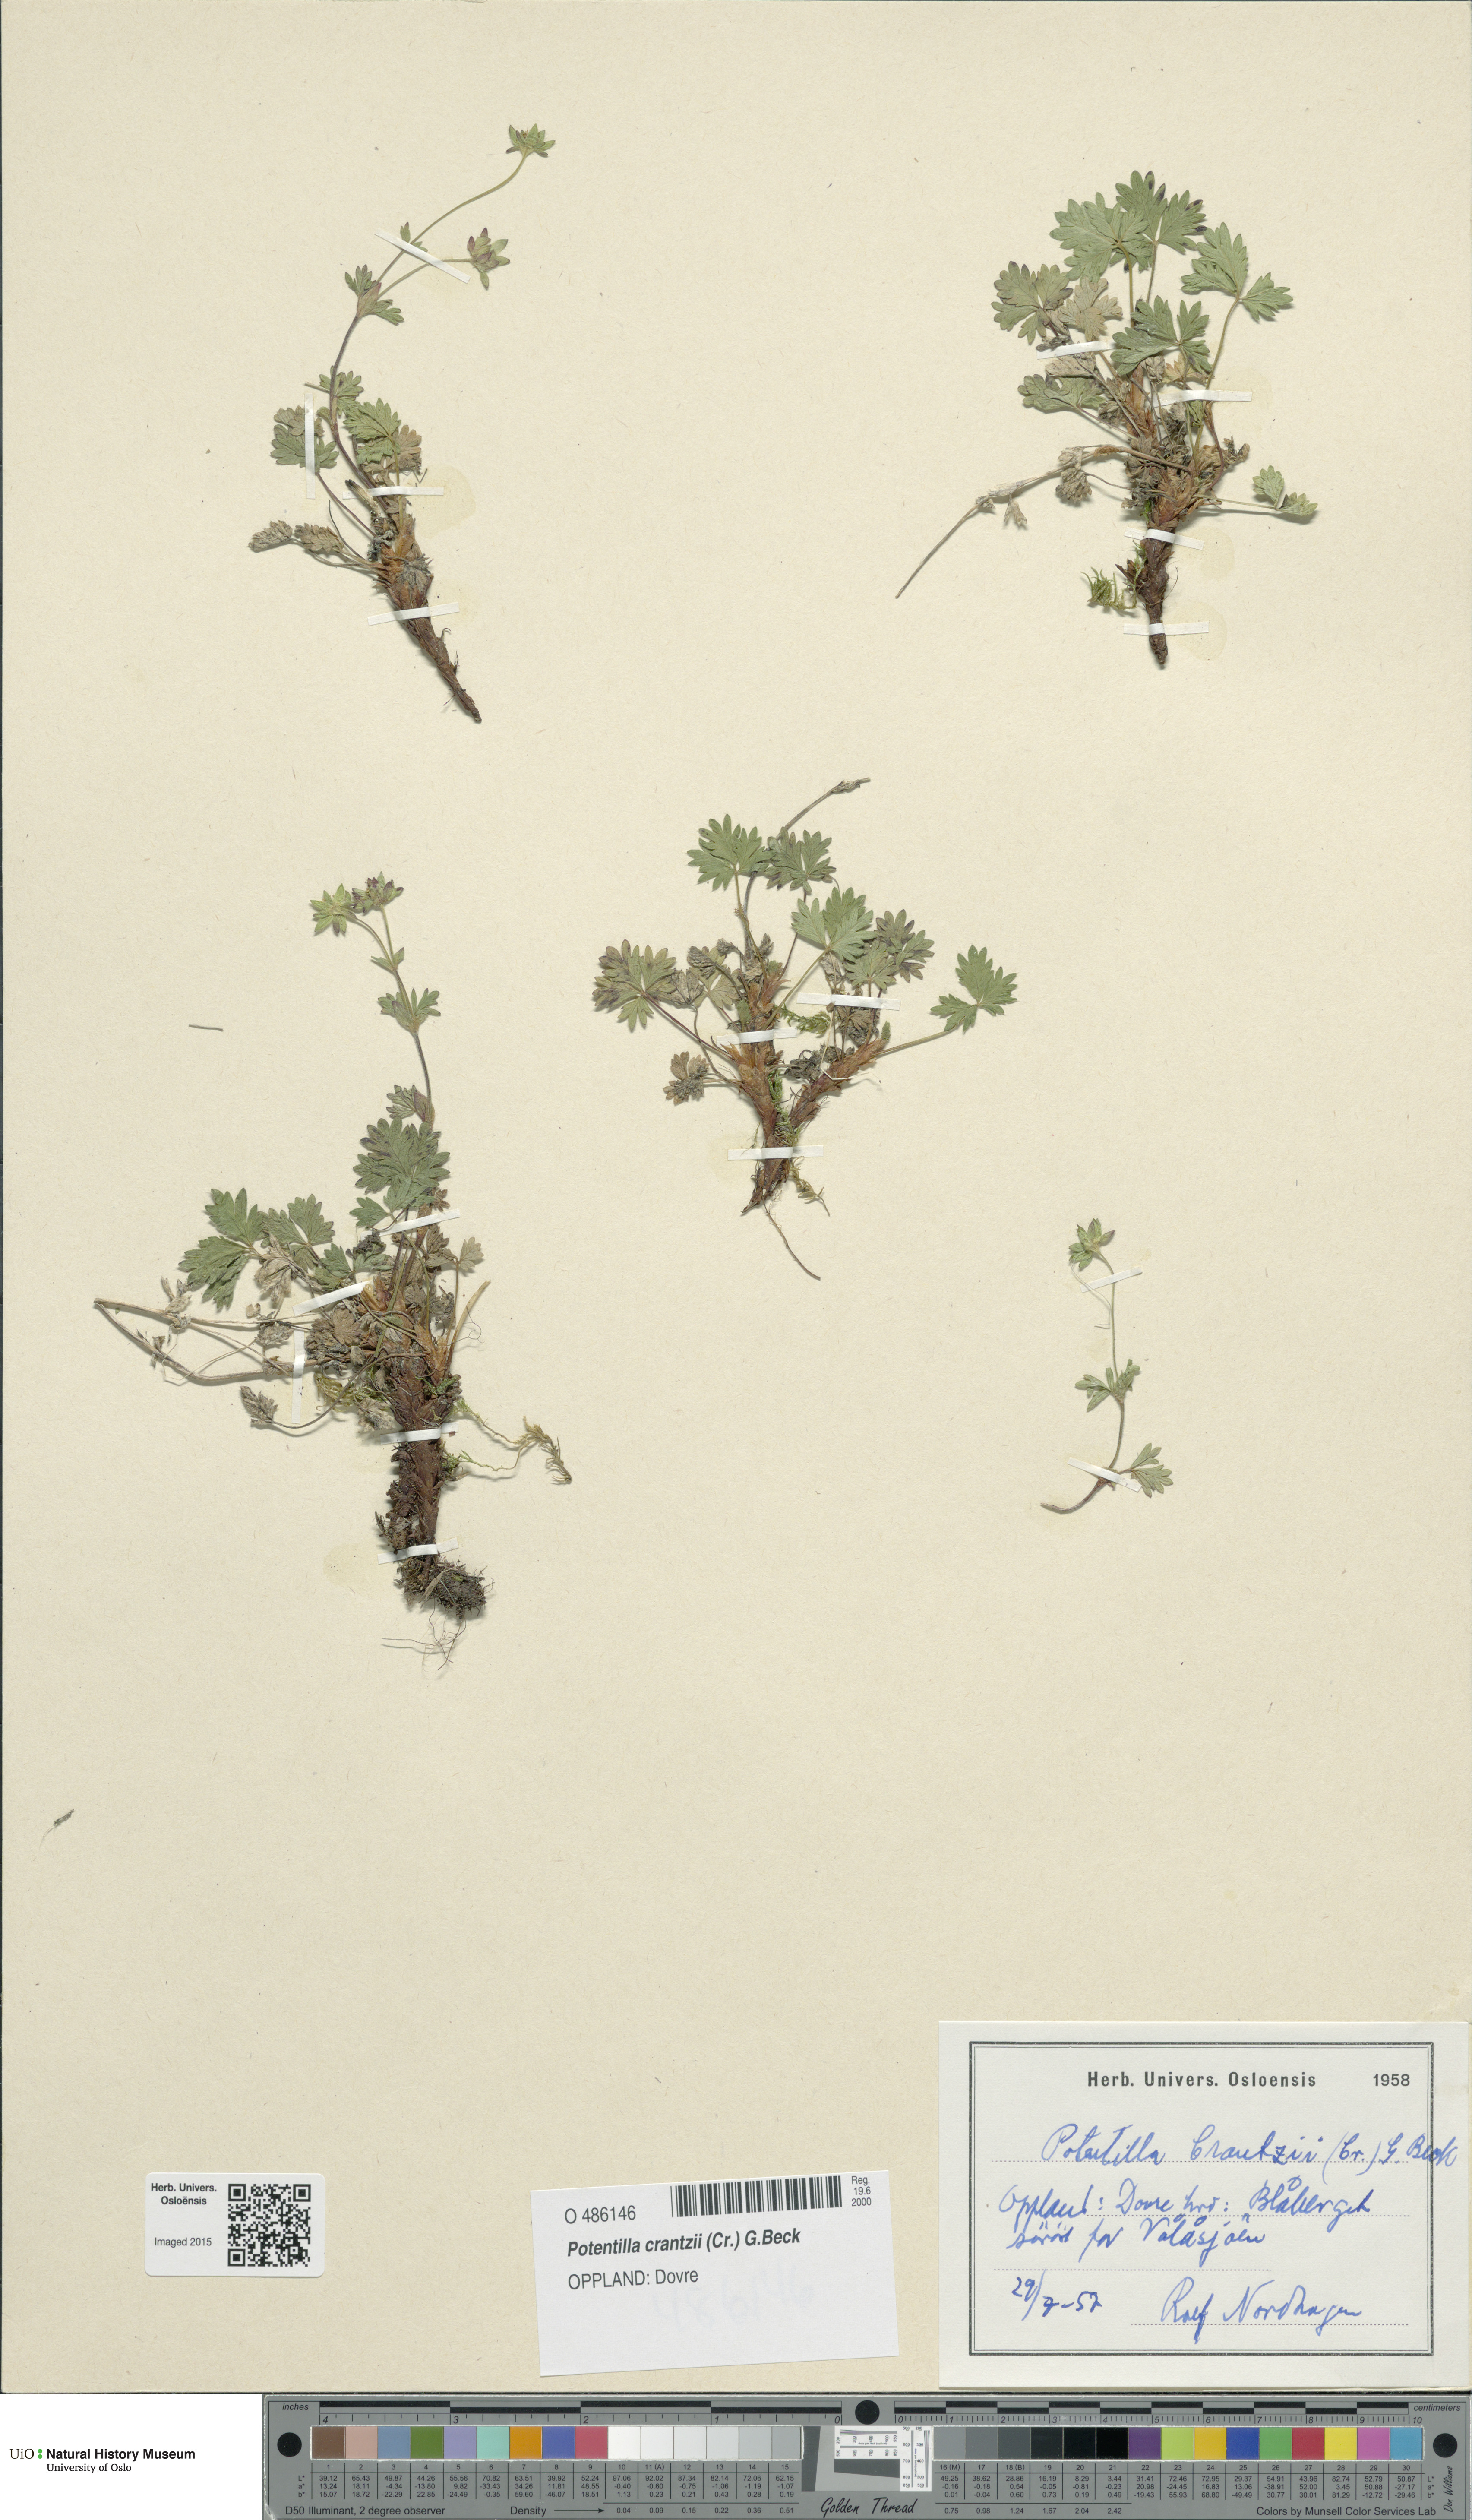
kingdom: Plantae
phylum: Tracheophyta
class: Magnoliopsida
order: Rosales
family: Rosaceae
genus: Potentilla
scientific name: Potentilla crantzii
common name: Alpine cinquefoil
